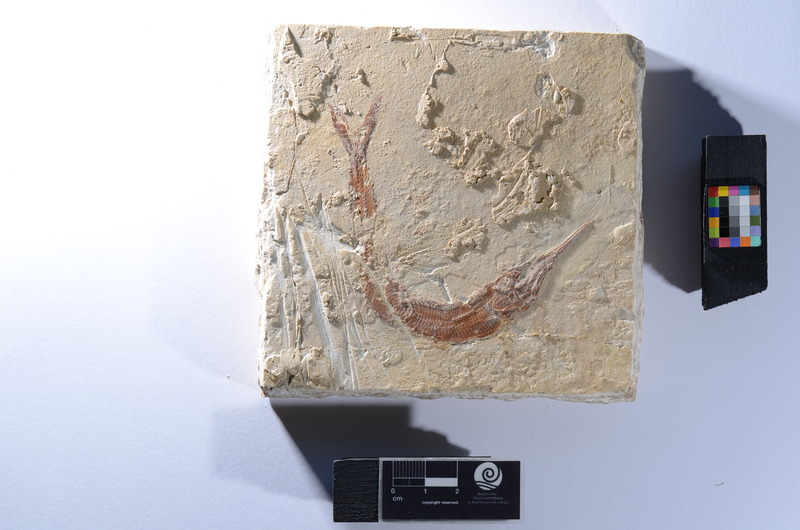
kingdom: Animalia
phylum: Chordata
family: Aspidorhynchidae
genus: Aspidorhynchus
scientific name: Aspidorhynchus
